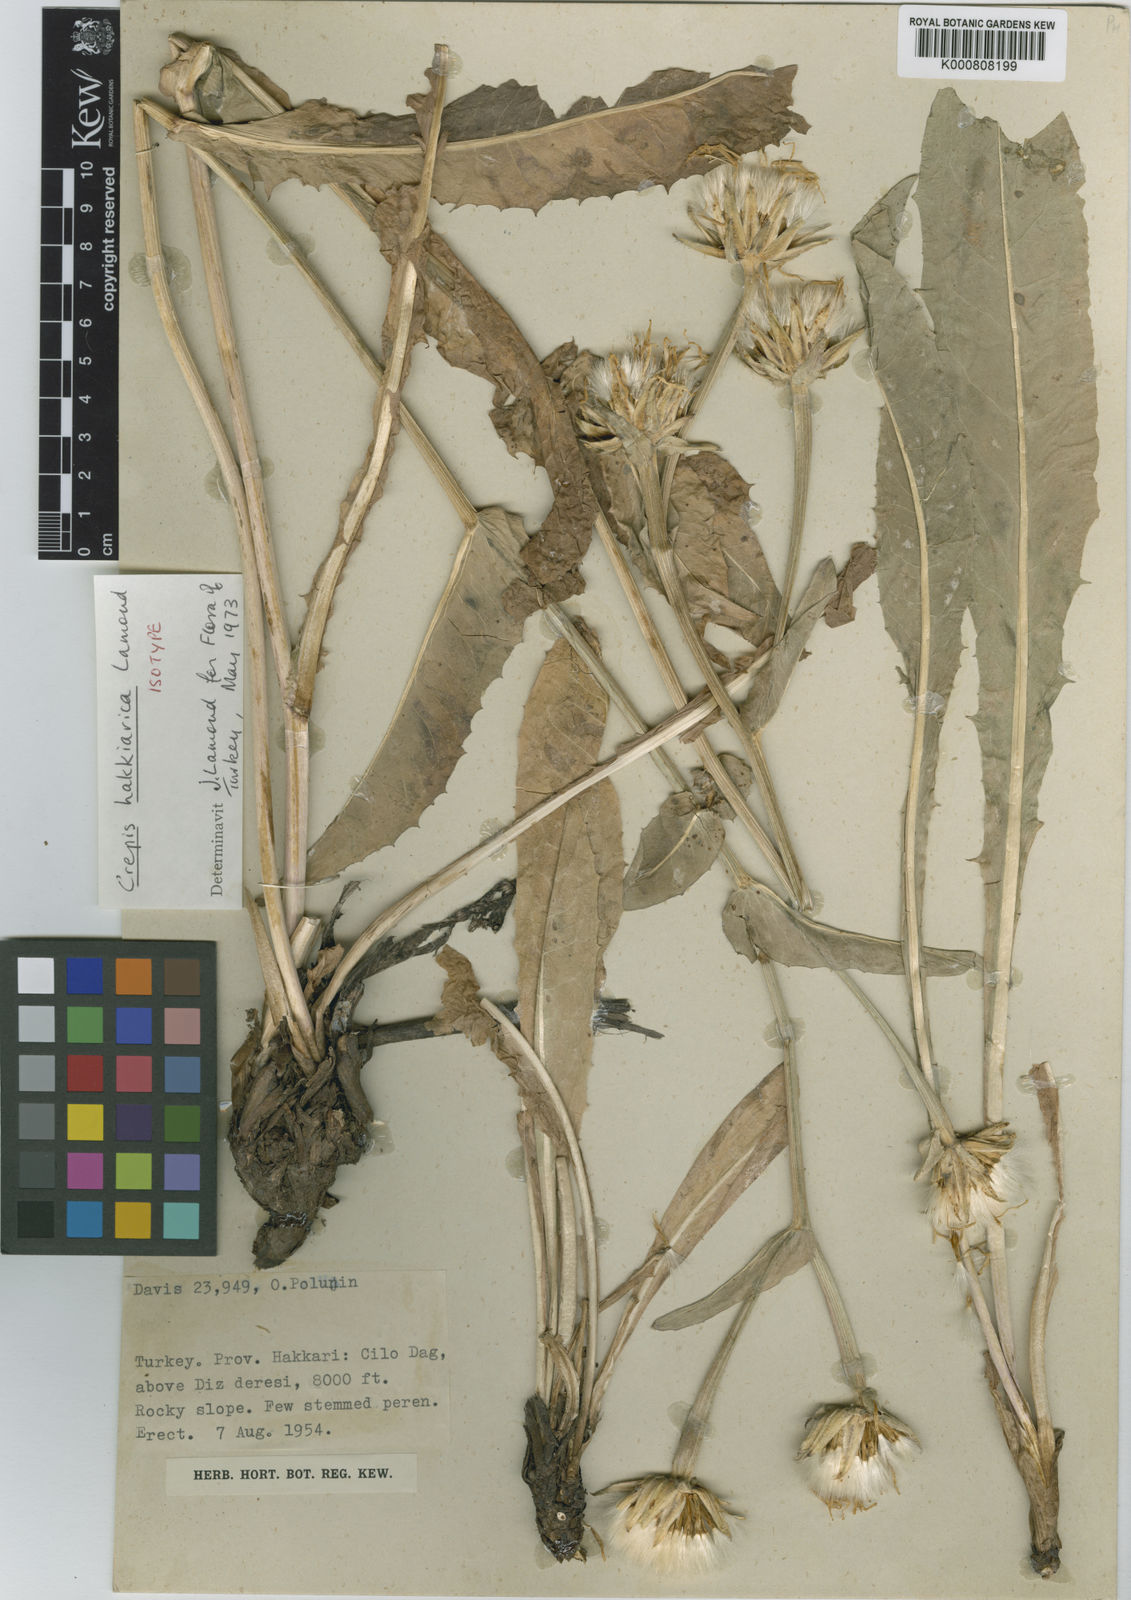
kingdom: Plantae
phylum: Tracheophyta
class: Magnoliopsida
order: Asterales
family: Asteraceae
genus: Crepis
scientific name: Crepis hakkarica
